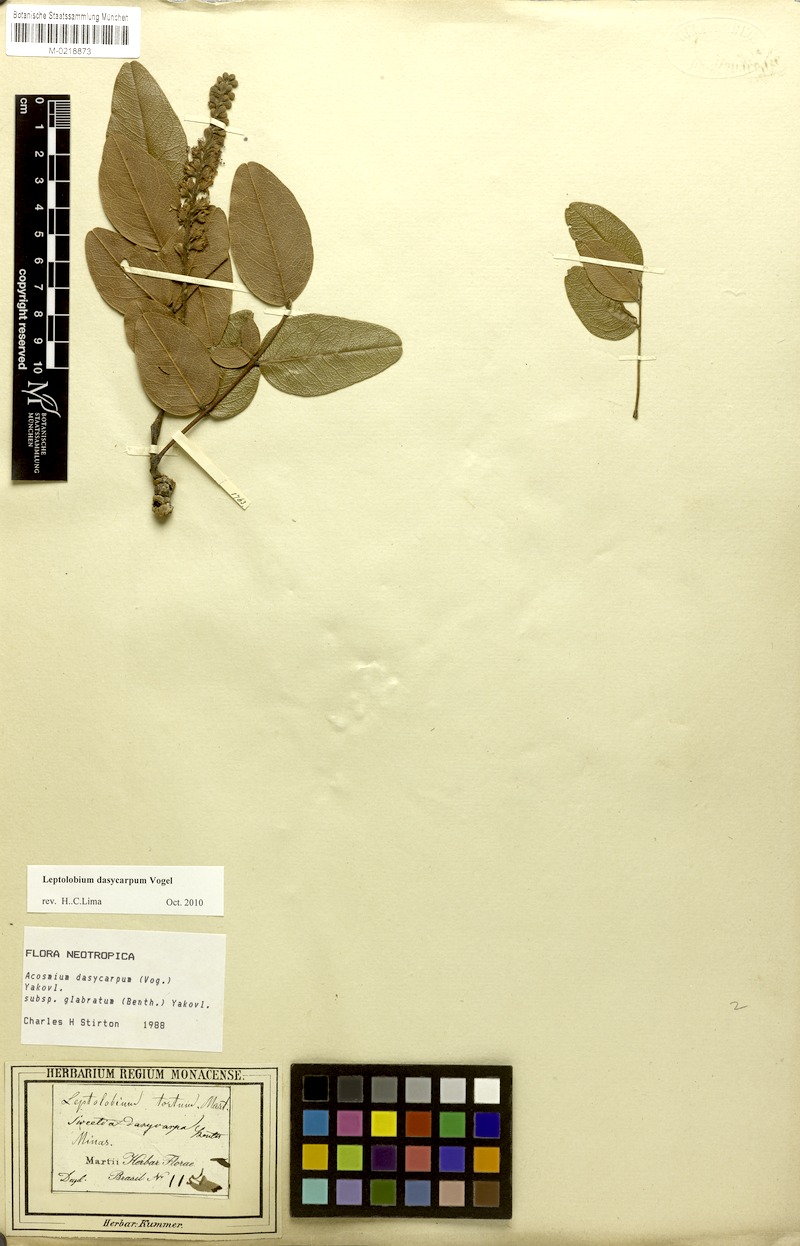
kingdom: Plantae
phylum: Tracheophyta
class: Magnoliopsida
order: Fabales
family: Fabaceae
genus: Leptolobium
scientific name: Leptolobium dasycarpum
